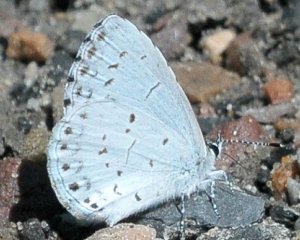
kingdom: Animalia
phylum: Arthropoda
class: Insecta
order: Lepidoptera
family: Lycaenidae
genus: Celastrina
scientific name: Celastrina serotina
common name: Cherry Gall Azure
